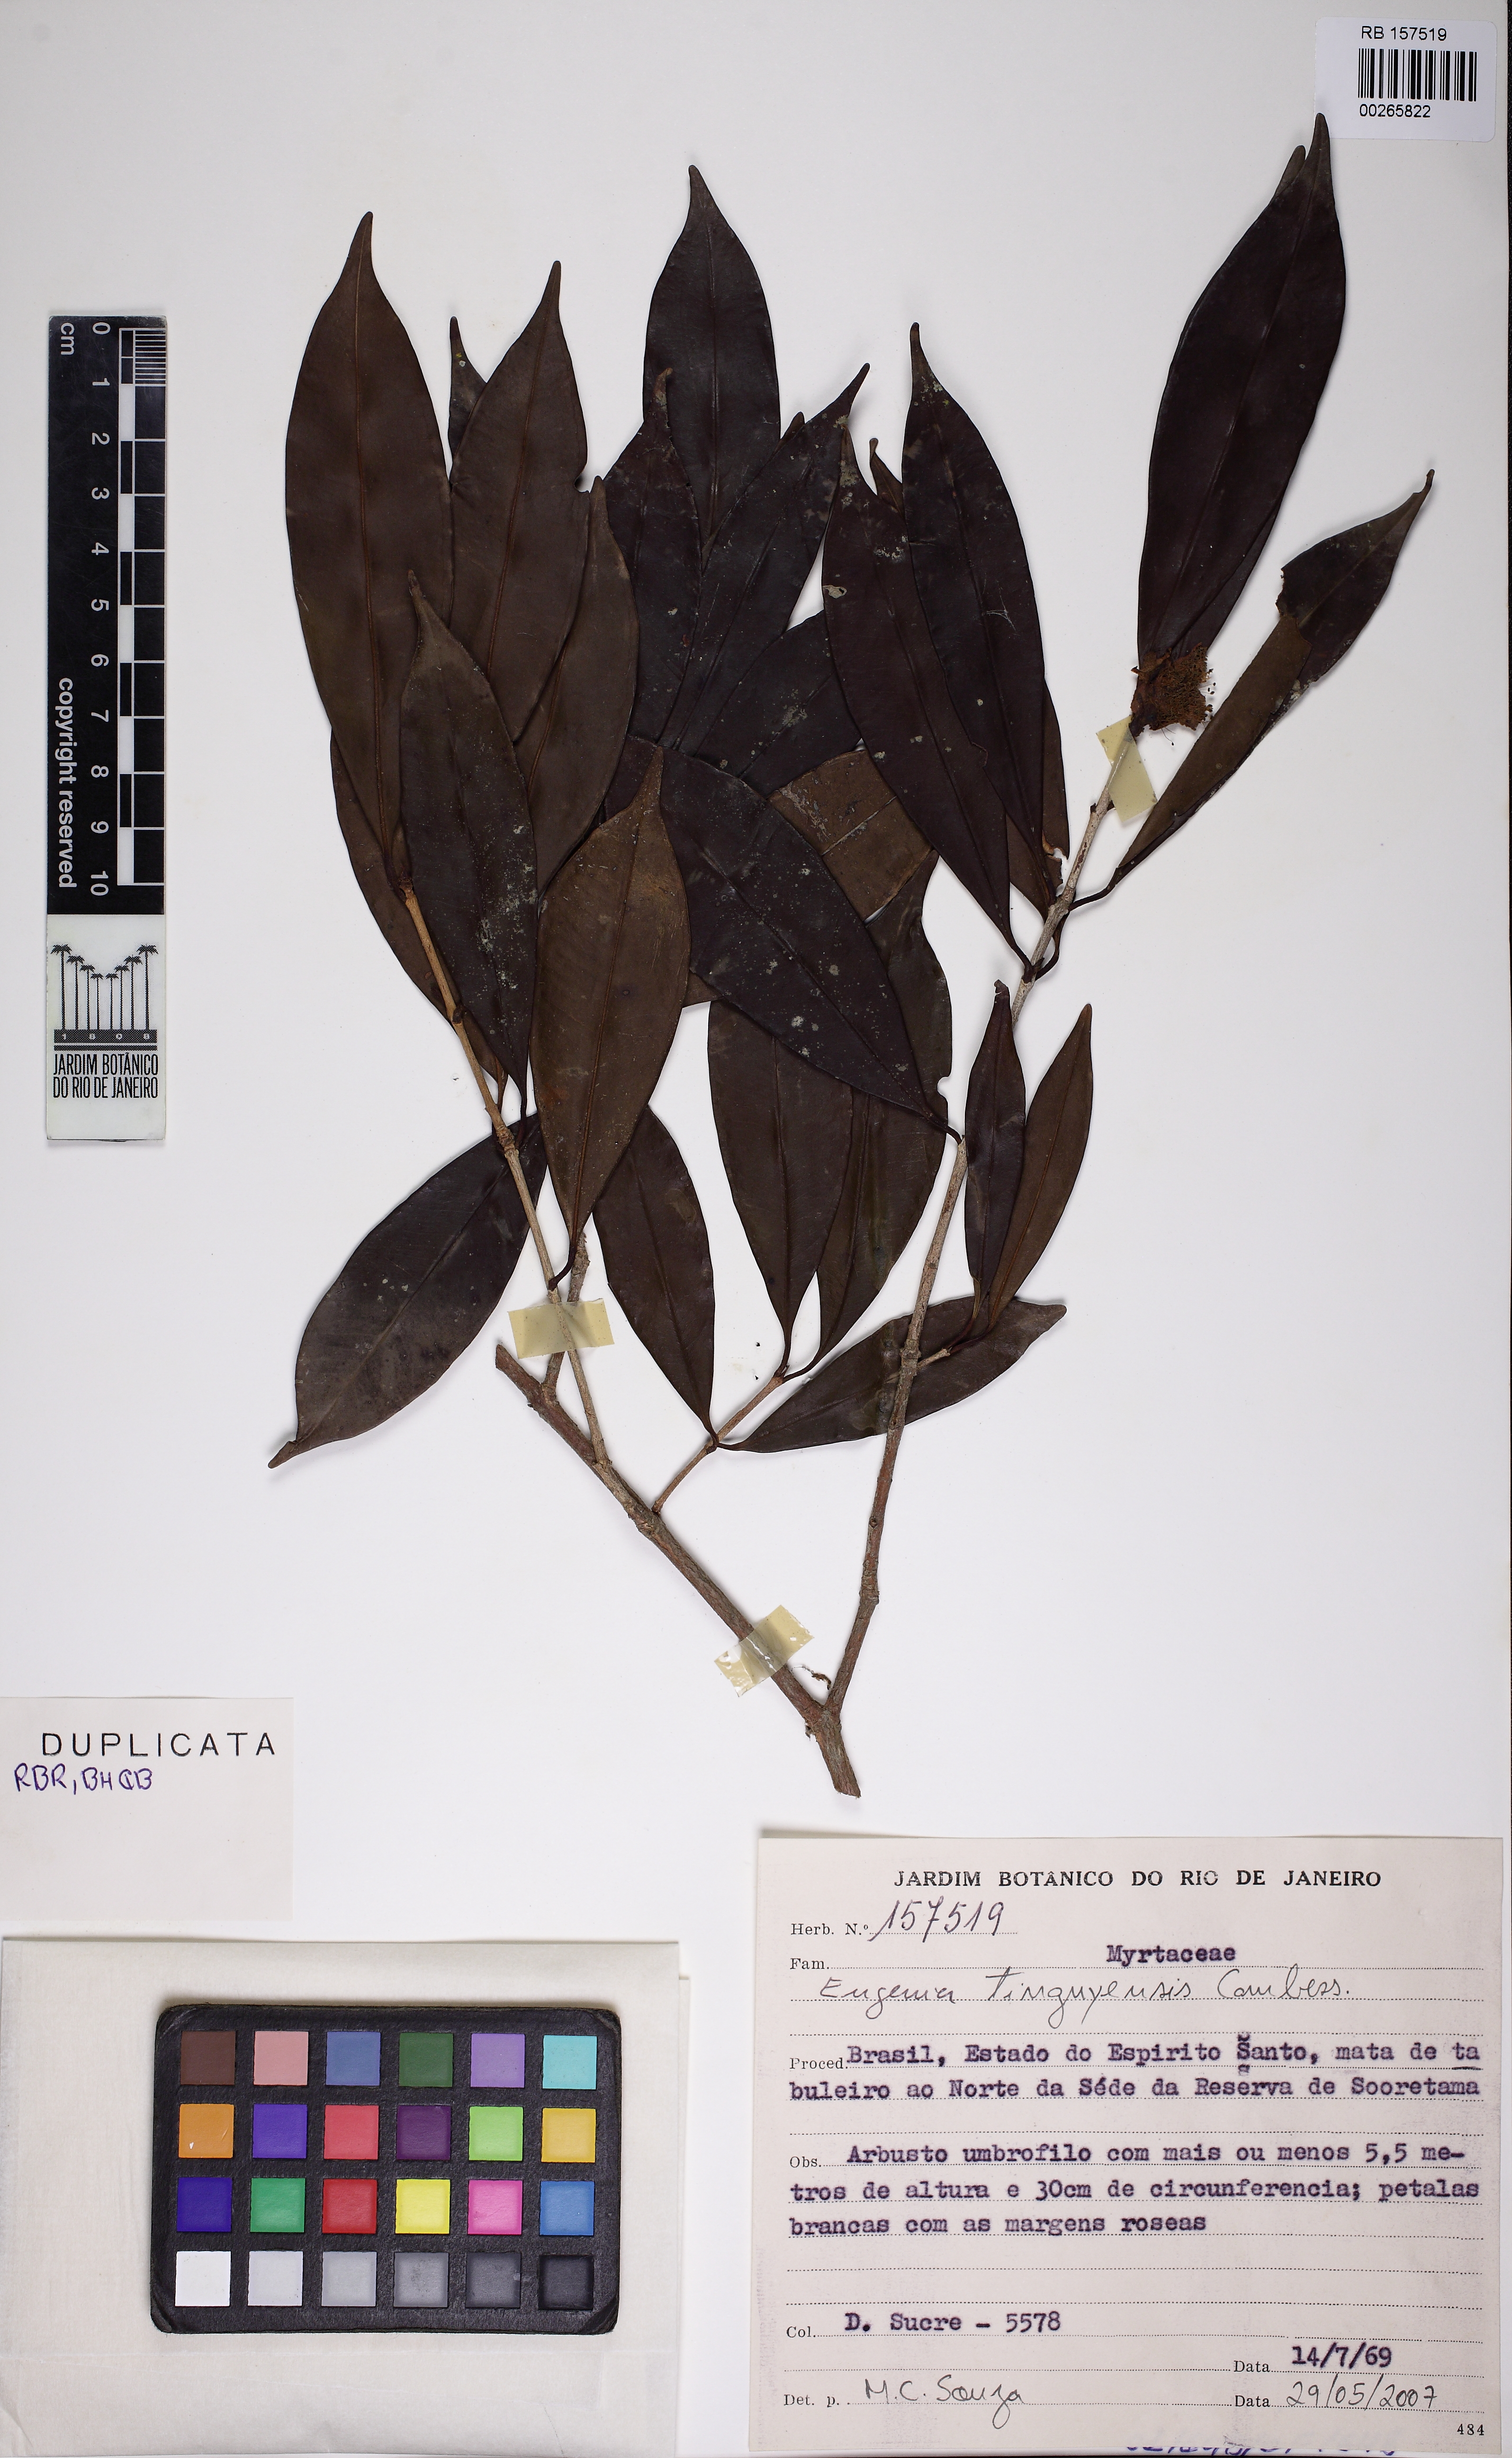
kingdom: Plantae
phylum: Tracheophyta
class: Magnoliopsida
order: Myrtales
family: Myrtaceae
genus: Eugenia
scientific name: Eugenia pisiformis
